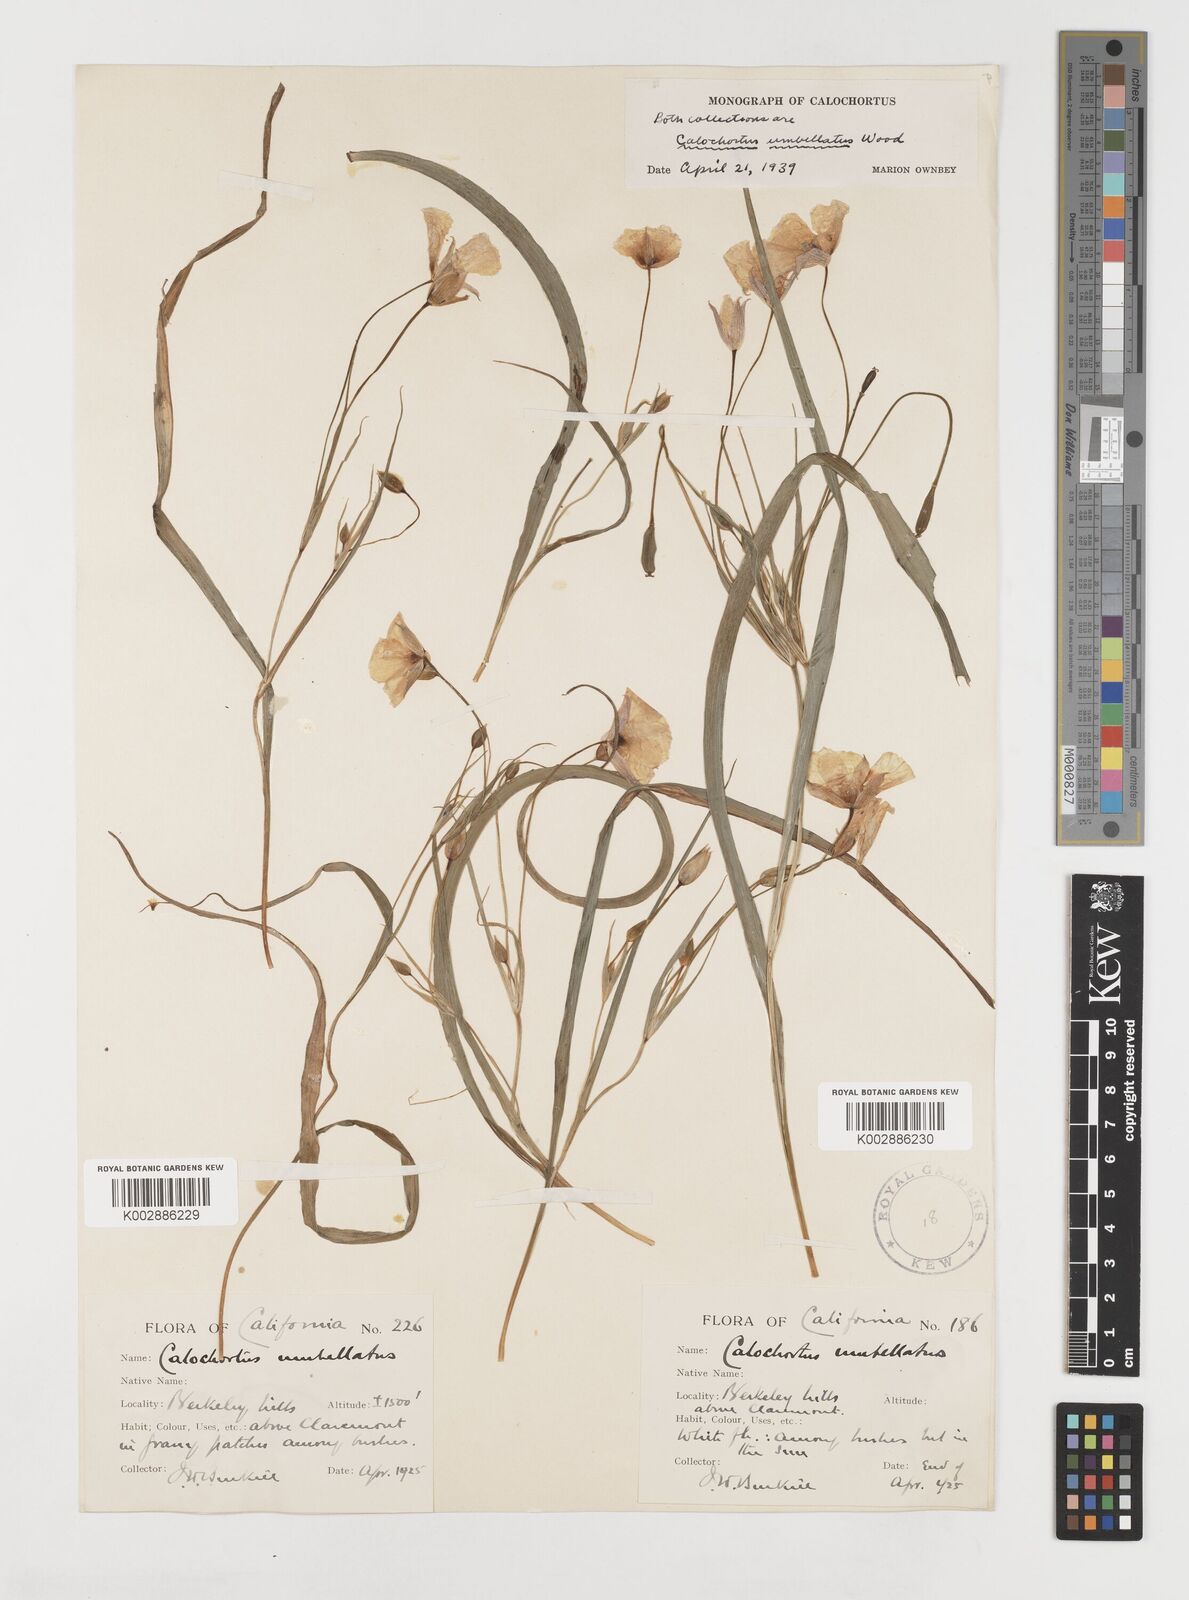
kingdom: Plantae
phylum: Tracheophyta
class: Liliopsida
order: Liliales
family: Liliaceae
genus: Calochortus
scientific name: Calochortus umbellatus
